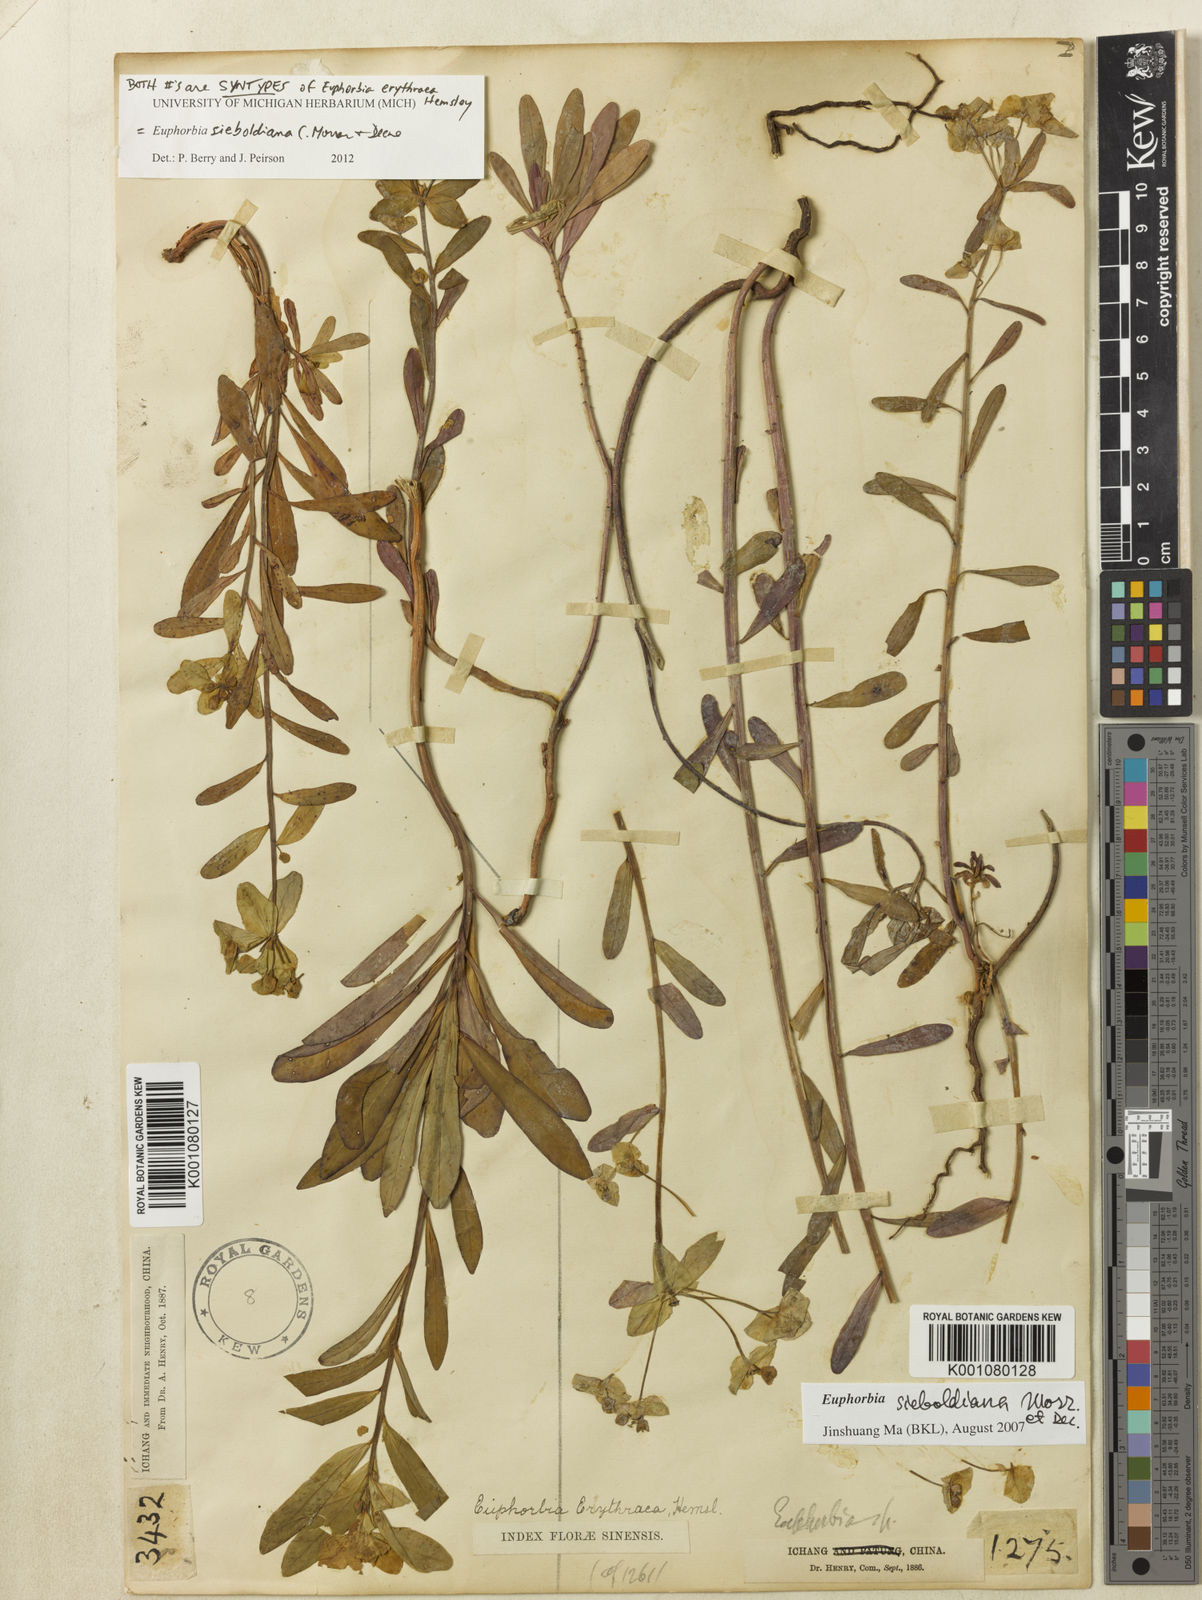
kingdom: Plantae
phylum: Tracheophyta
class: Magnoliopsida
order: Malpighiales
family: Euphorbiaceae
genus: Euphorbia
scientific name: Euphorbia sieboldiana
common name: Siebold's spurge
